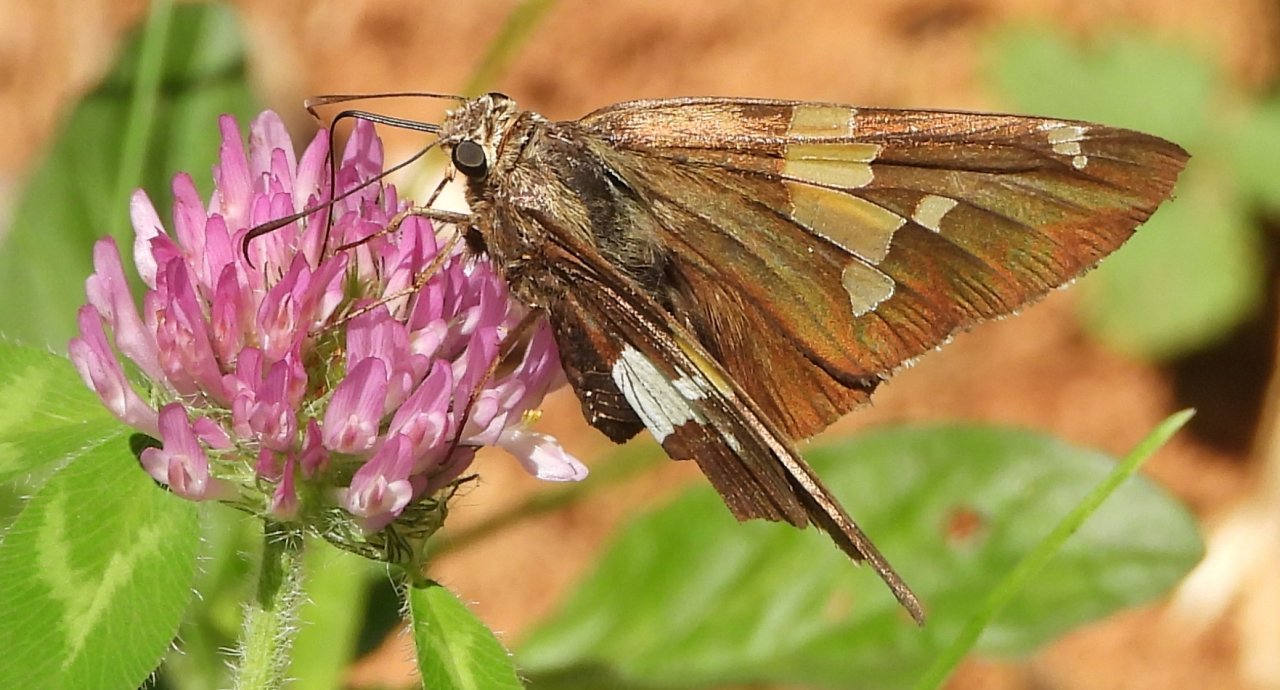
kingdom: Animalia
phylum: Arthropoda
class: Insecta
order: Lepidoptera
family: Hesperiidae
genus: Epargyreus
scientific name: Epargyreus clarus
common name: Silver-spotted Skipper
